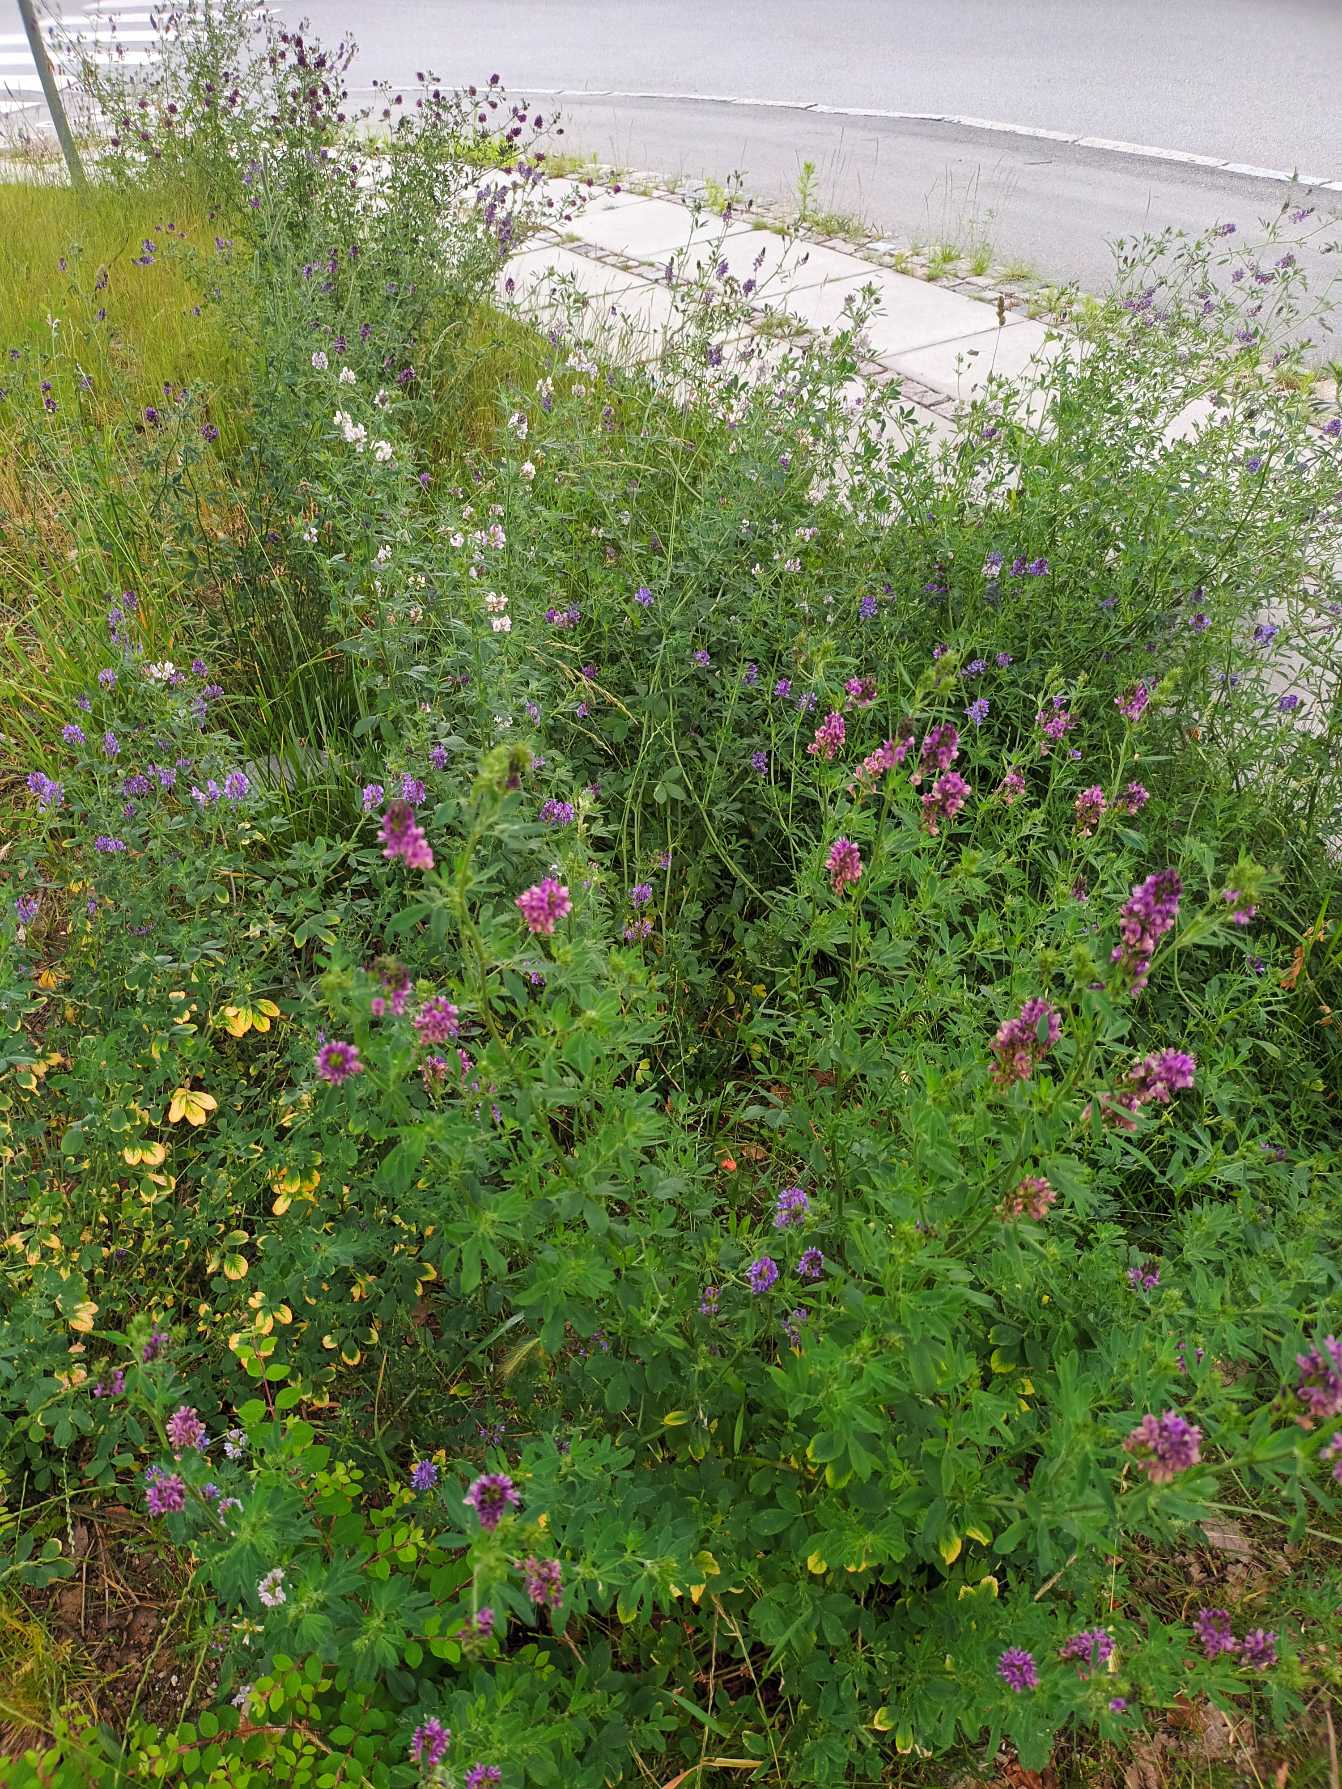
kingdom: Plantae
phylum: Tracheophyta
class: Magnoliopsida
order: Fabales
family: Fabaceae
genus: Medicago
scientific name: Medicago sativa
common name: Lucerne
